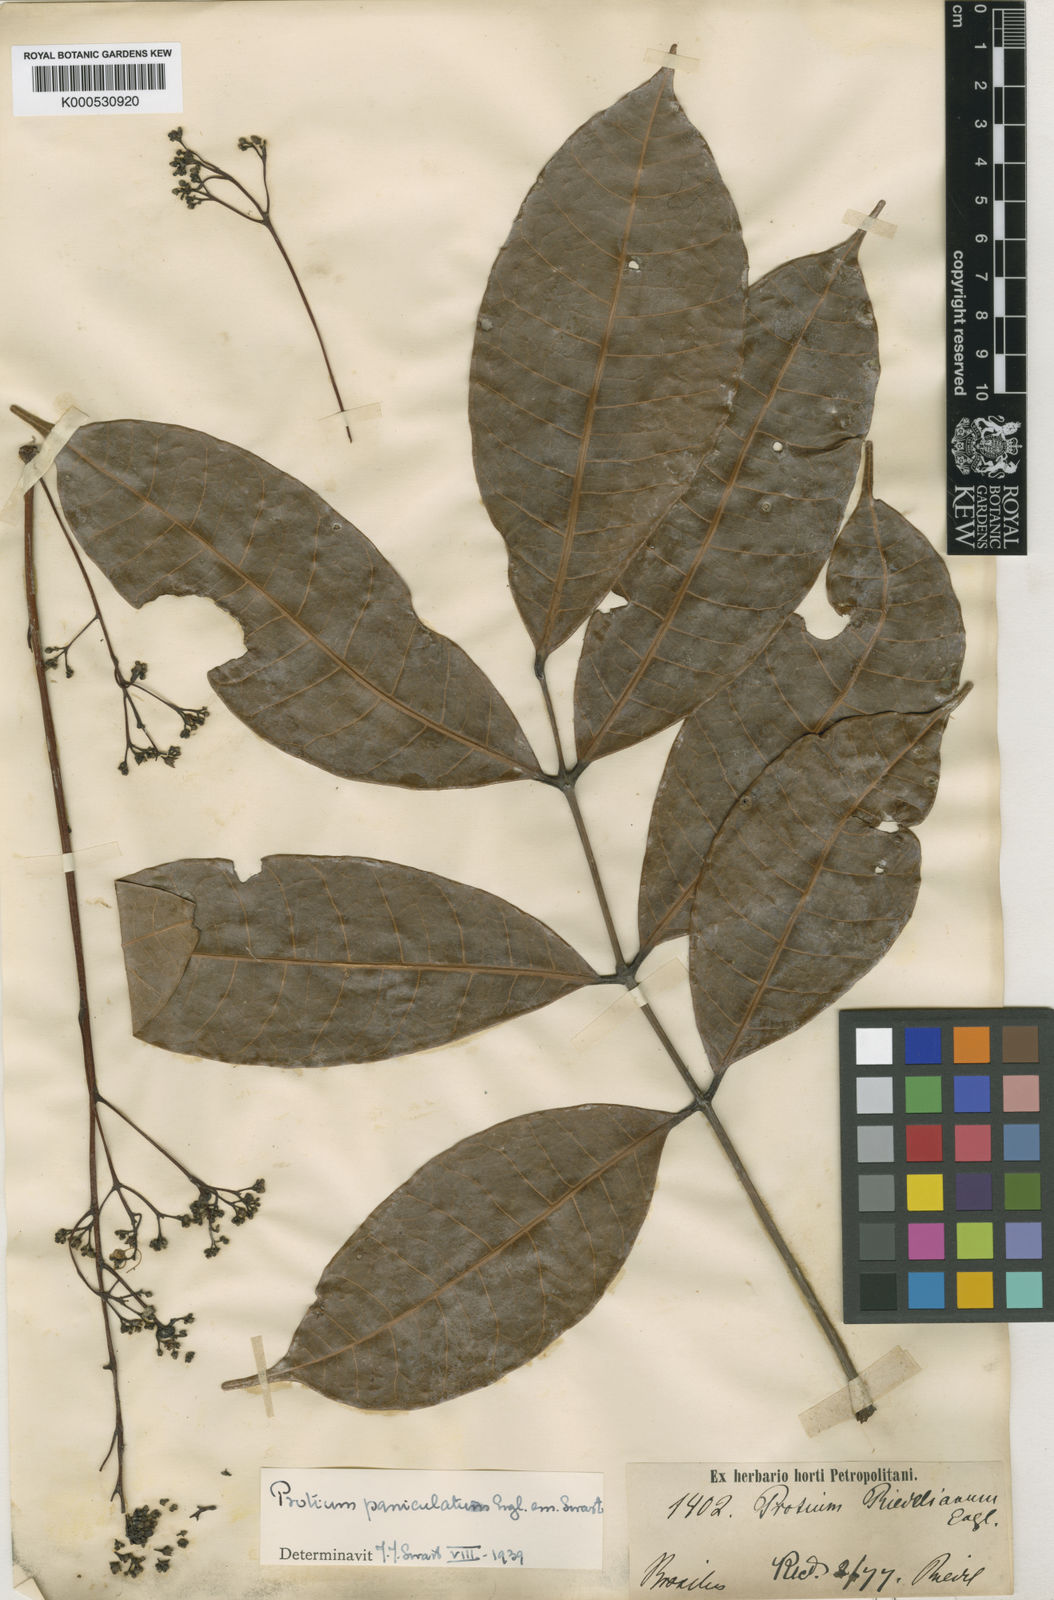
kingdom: Plantae
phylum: Tracheophyta
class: Magnoliopsida
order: Sapindales
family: Burseraceae
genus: Protium
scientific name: Protium paniculatum
